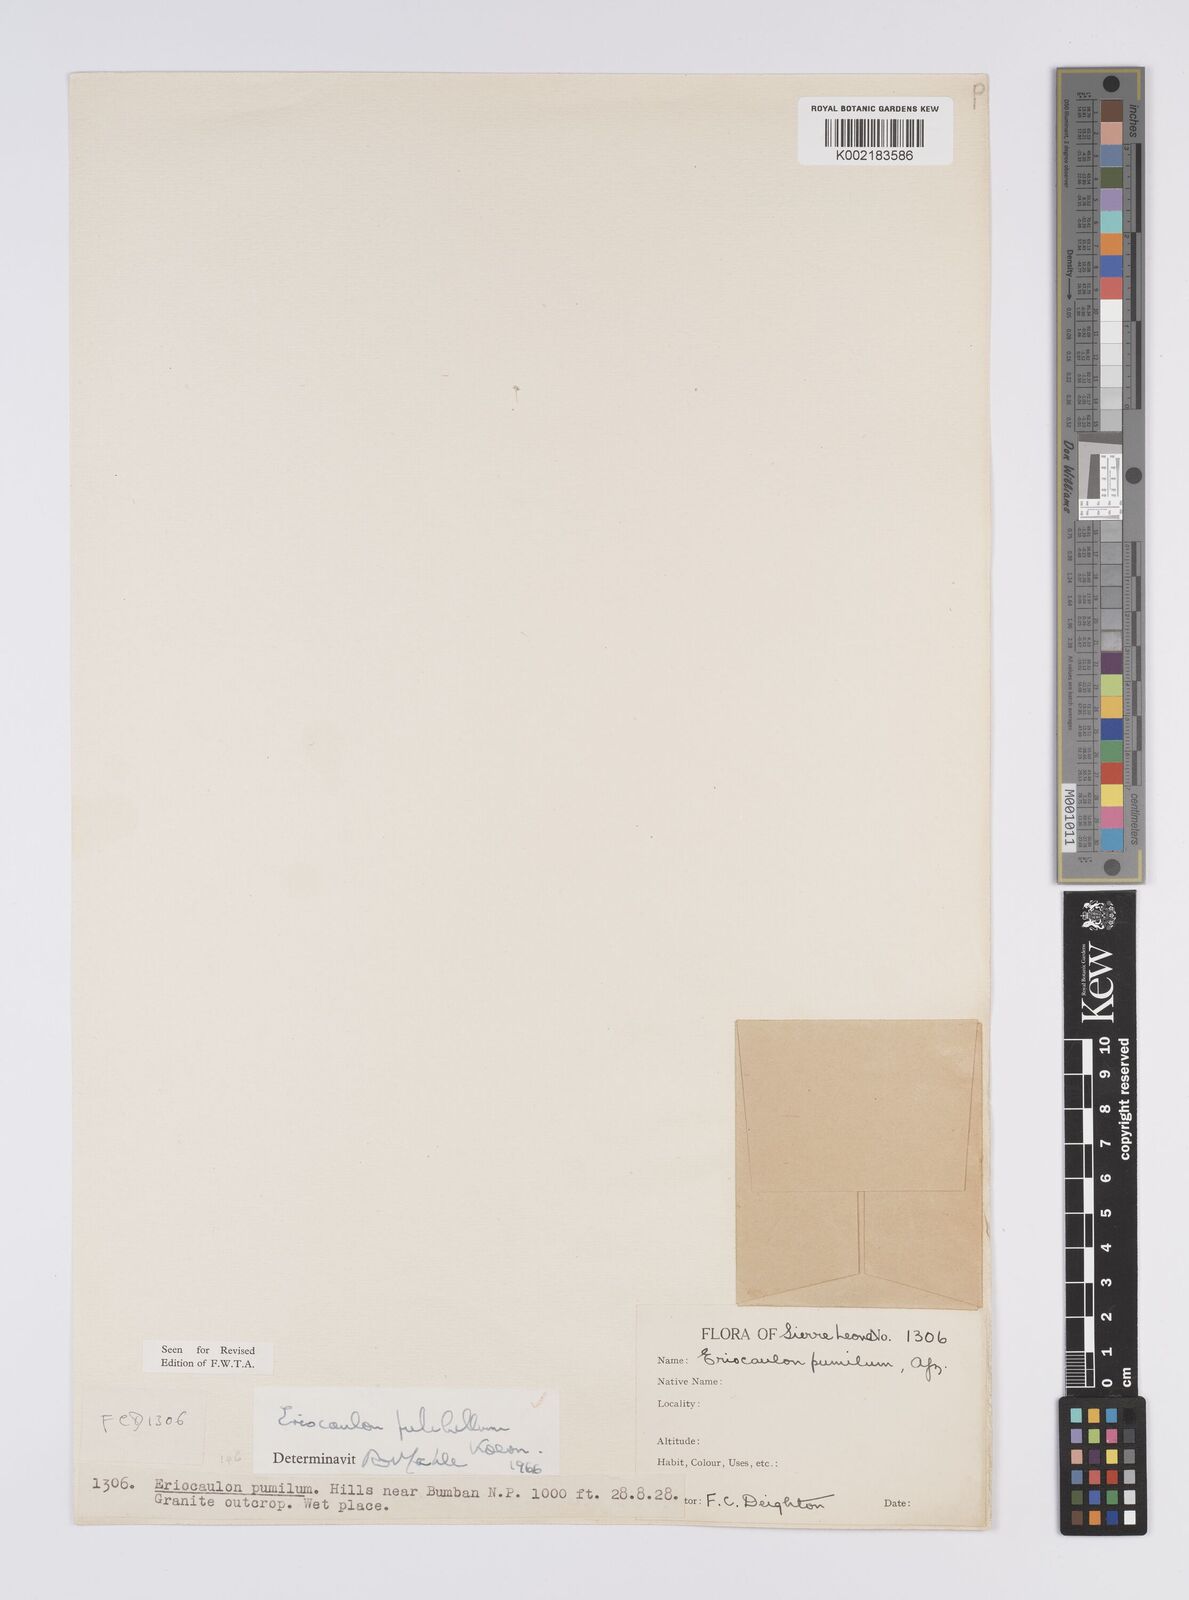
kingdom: Plantae
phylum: Tracheophyta
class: Liliopsida
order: Poales
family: Eriocaulaceae
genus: Eriocaulon
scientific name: Eriocaulon pulchellum
